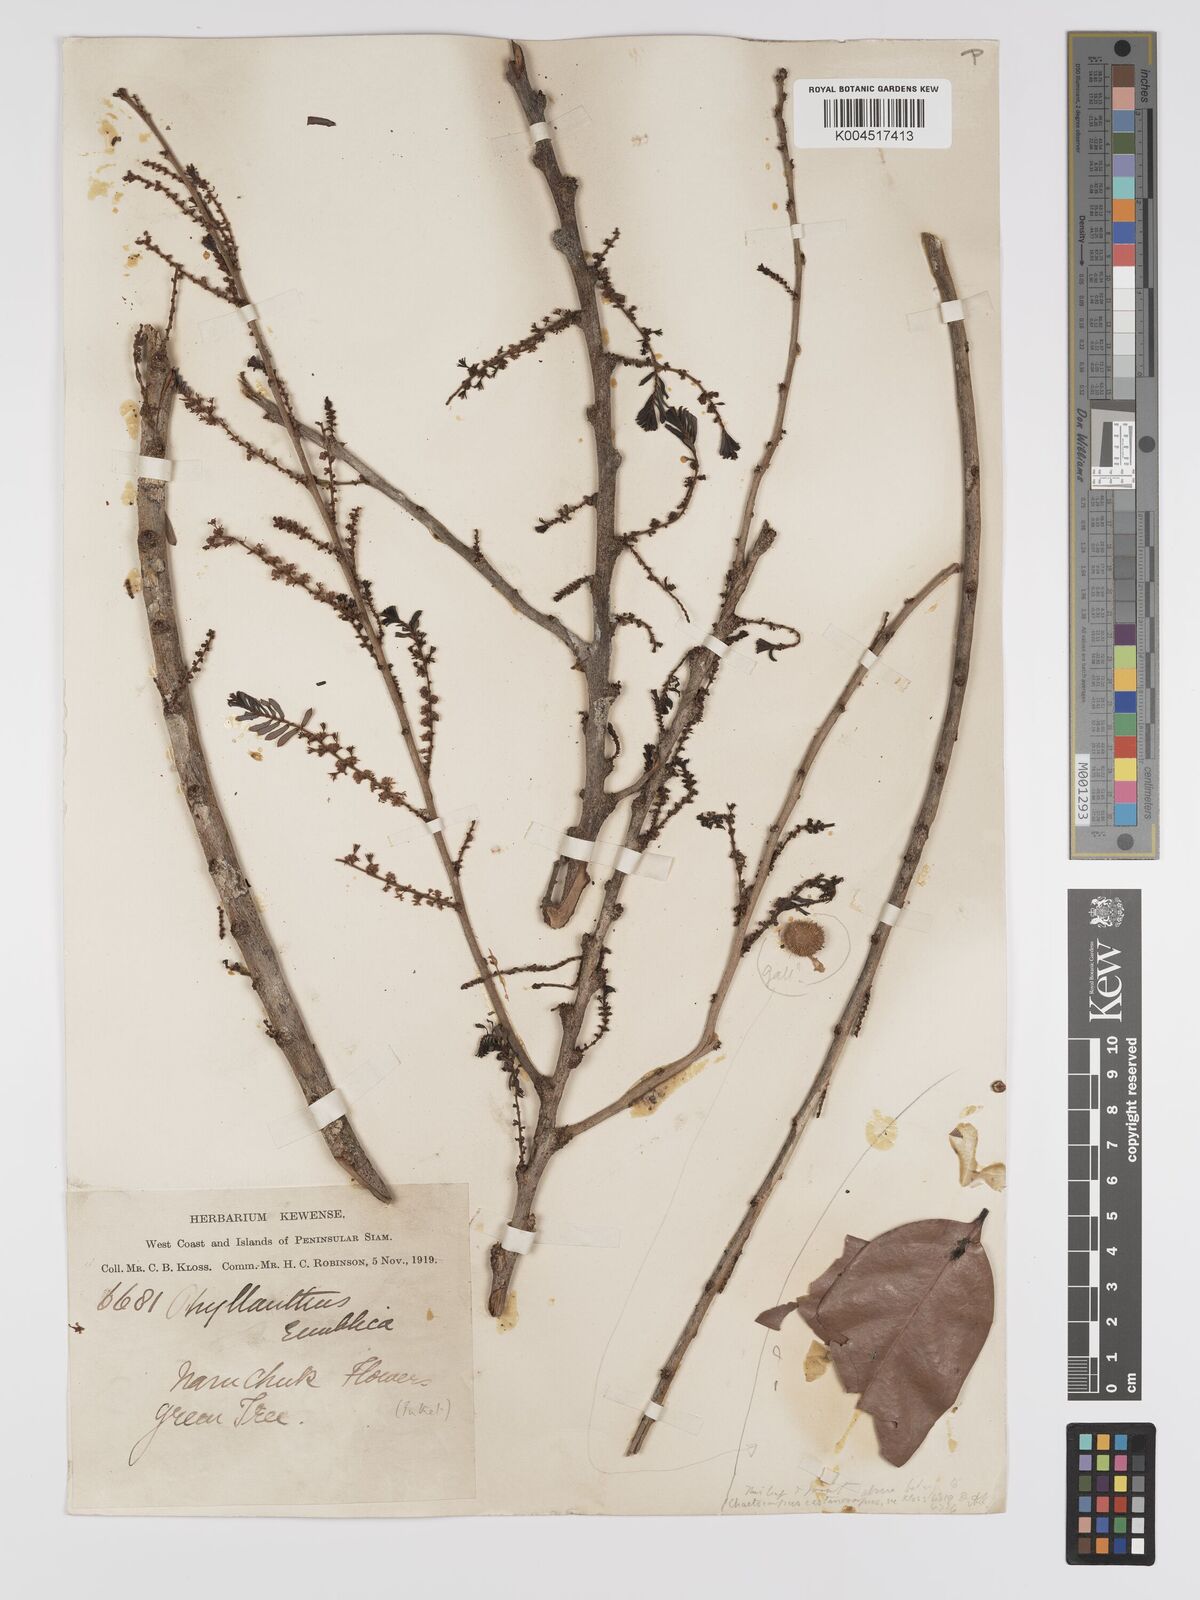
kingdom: Plantae
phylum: Tracheophyta
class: Magnoliopsida
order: Malpighiales
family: Phyllanthaceae
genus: Phyllanthus
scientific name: Phyllanthus emblica
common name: Indian gooseberry
